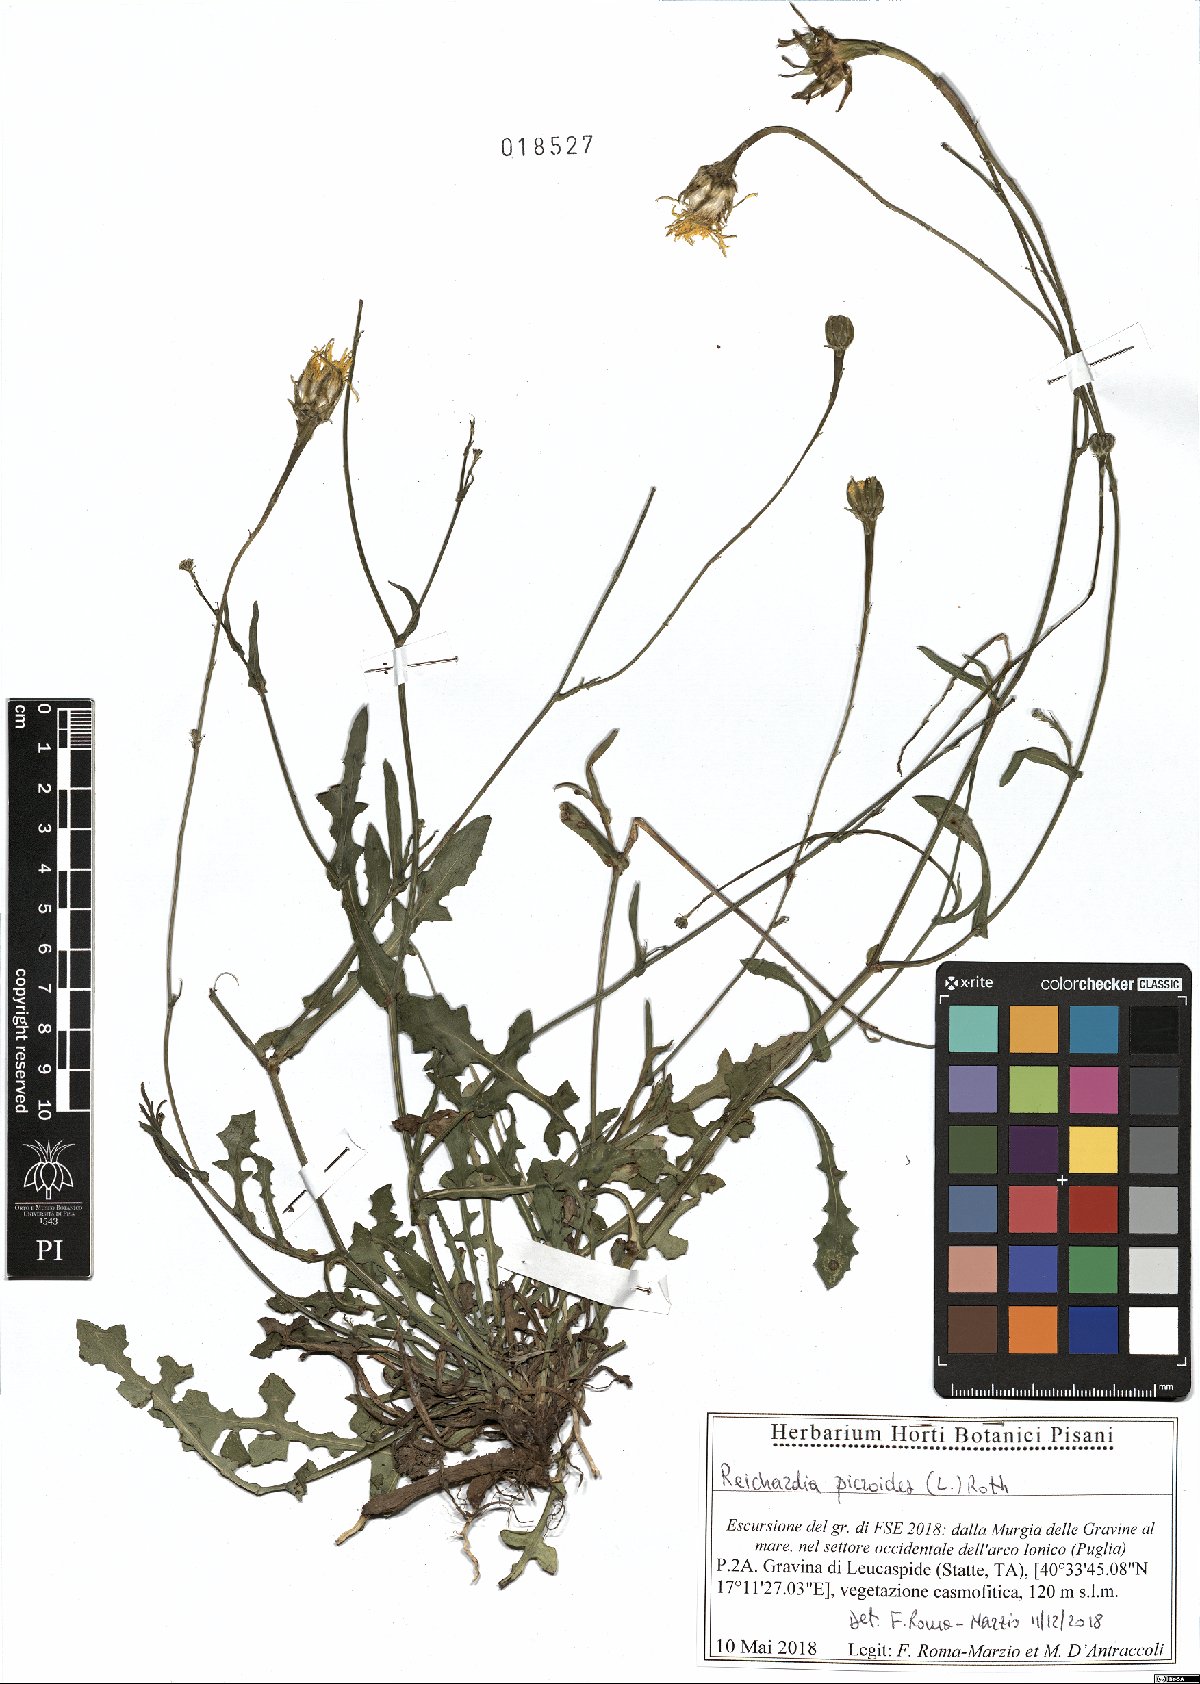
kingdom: Plantae
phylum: Tracheophyta
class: Magnoliopsida
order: Asterales
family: Asteraceae
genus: Reichardia
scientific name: Reichardia picroides
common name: Common brighteyes
